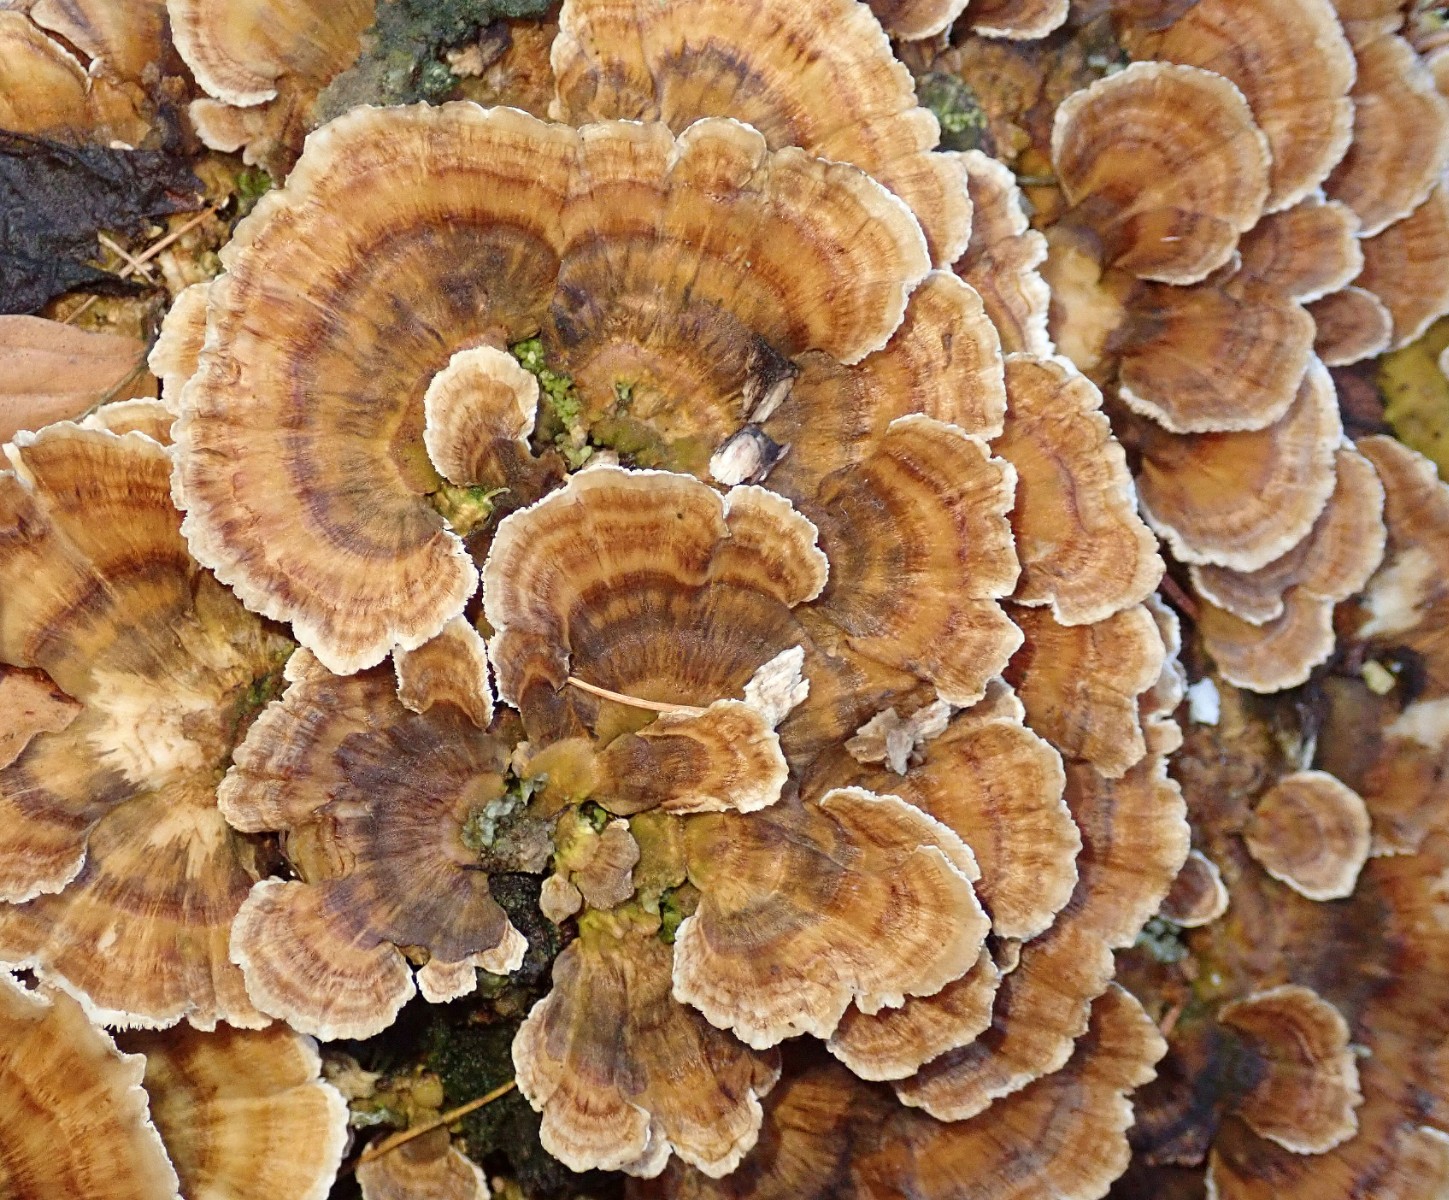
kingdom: Fungi
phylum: Basidiomycota
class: Agaricomycetes
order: Polyporales
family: Polyporaceae
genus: Trametes
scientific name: Trametes versicolor
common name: broget læderporesvamp
